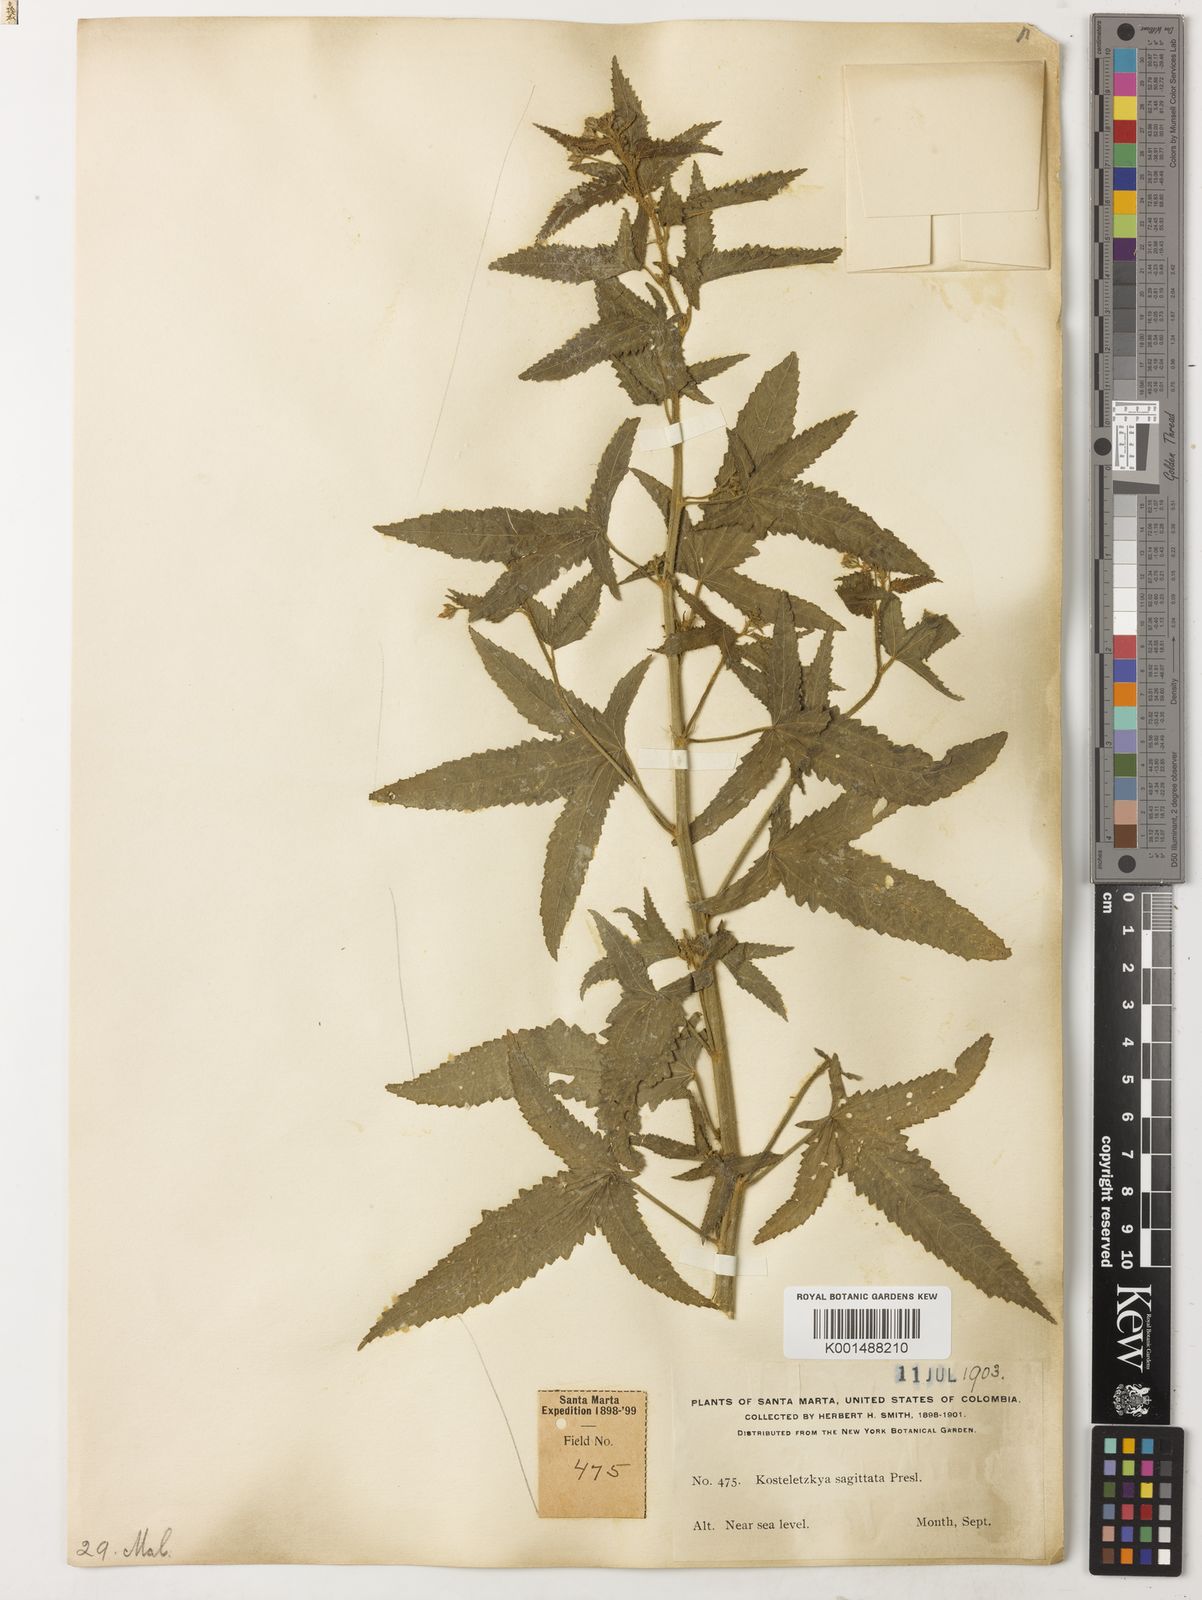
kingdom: Plantae
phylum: Tracheophyta
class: Magnoliopsida
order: Malvales
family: Malvaceae
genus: Kosteletzkya
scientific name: Kosteletzkya depressa
